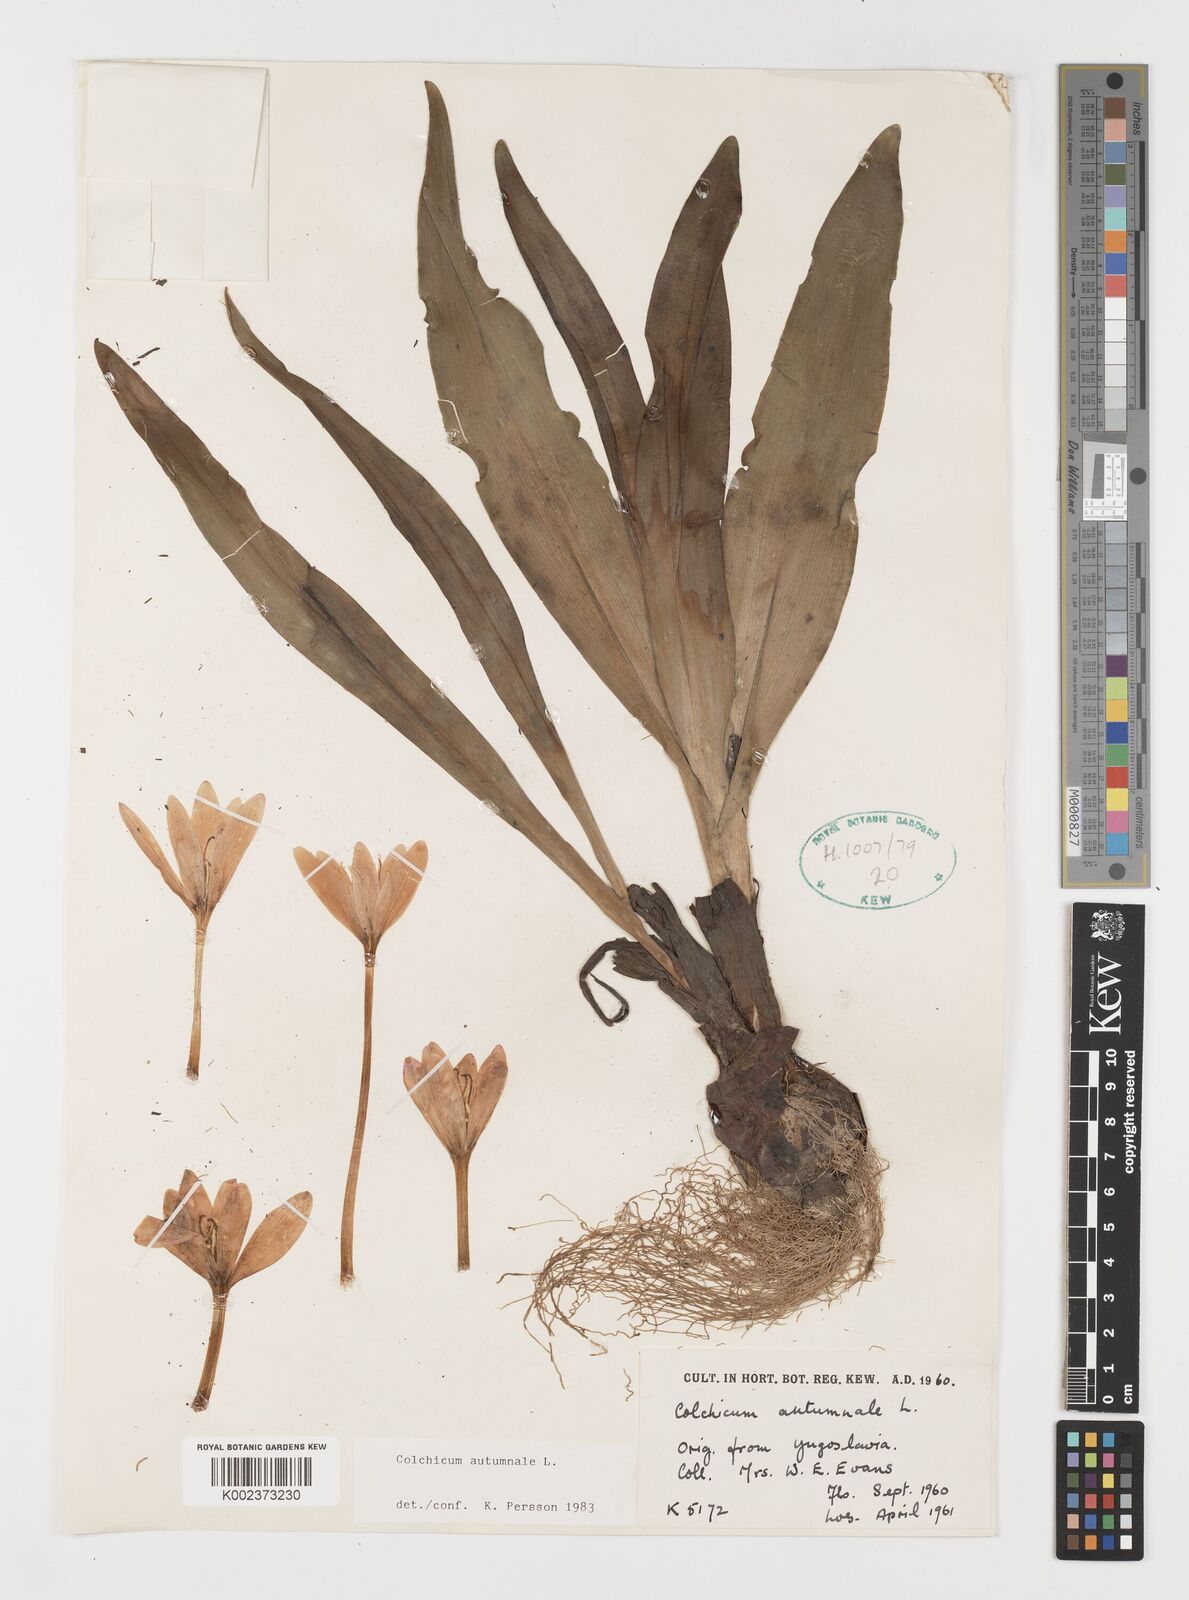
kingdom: Plantae
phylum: Tracheophyta
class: Liliopsida
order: Liliales
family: Colchicaceae
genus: Colchicum
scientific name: Colchicum autumnale
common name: Autumn crocus
